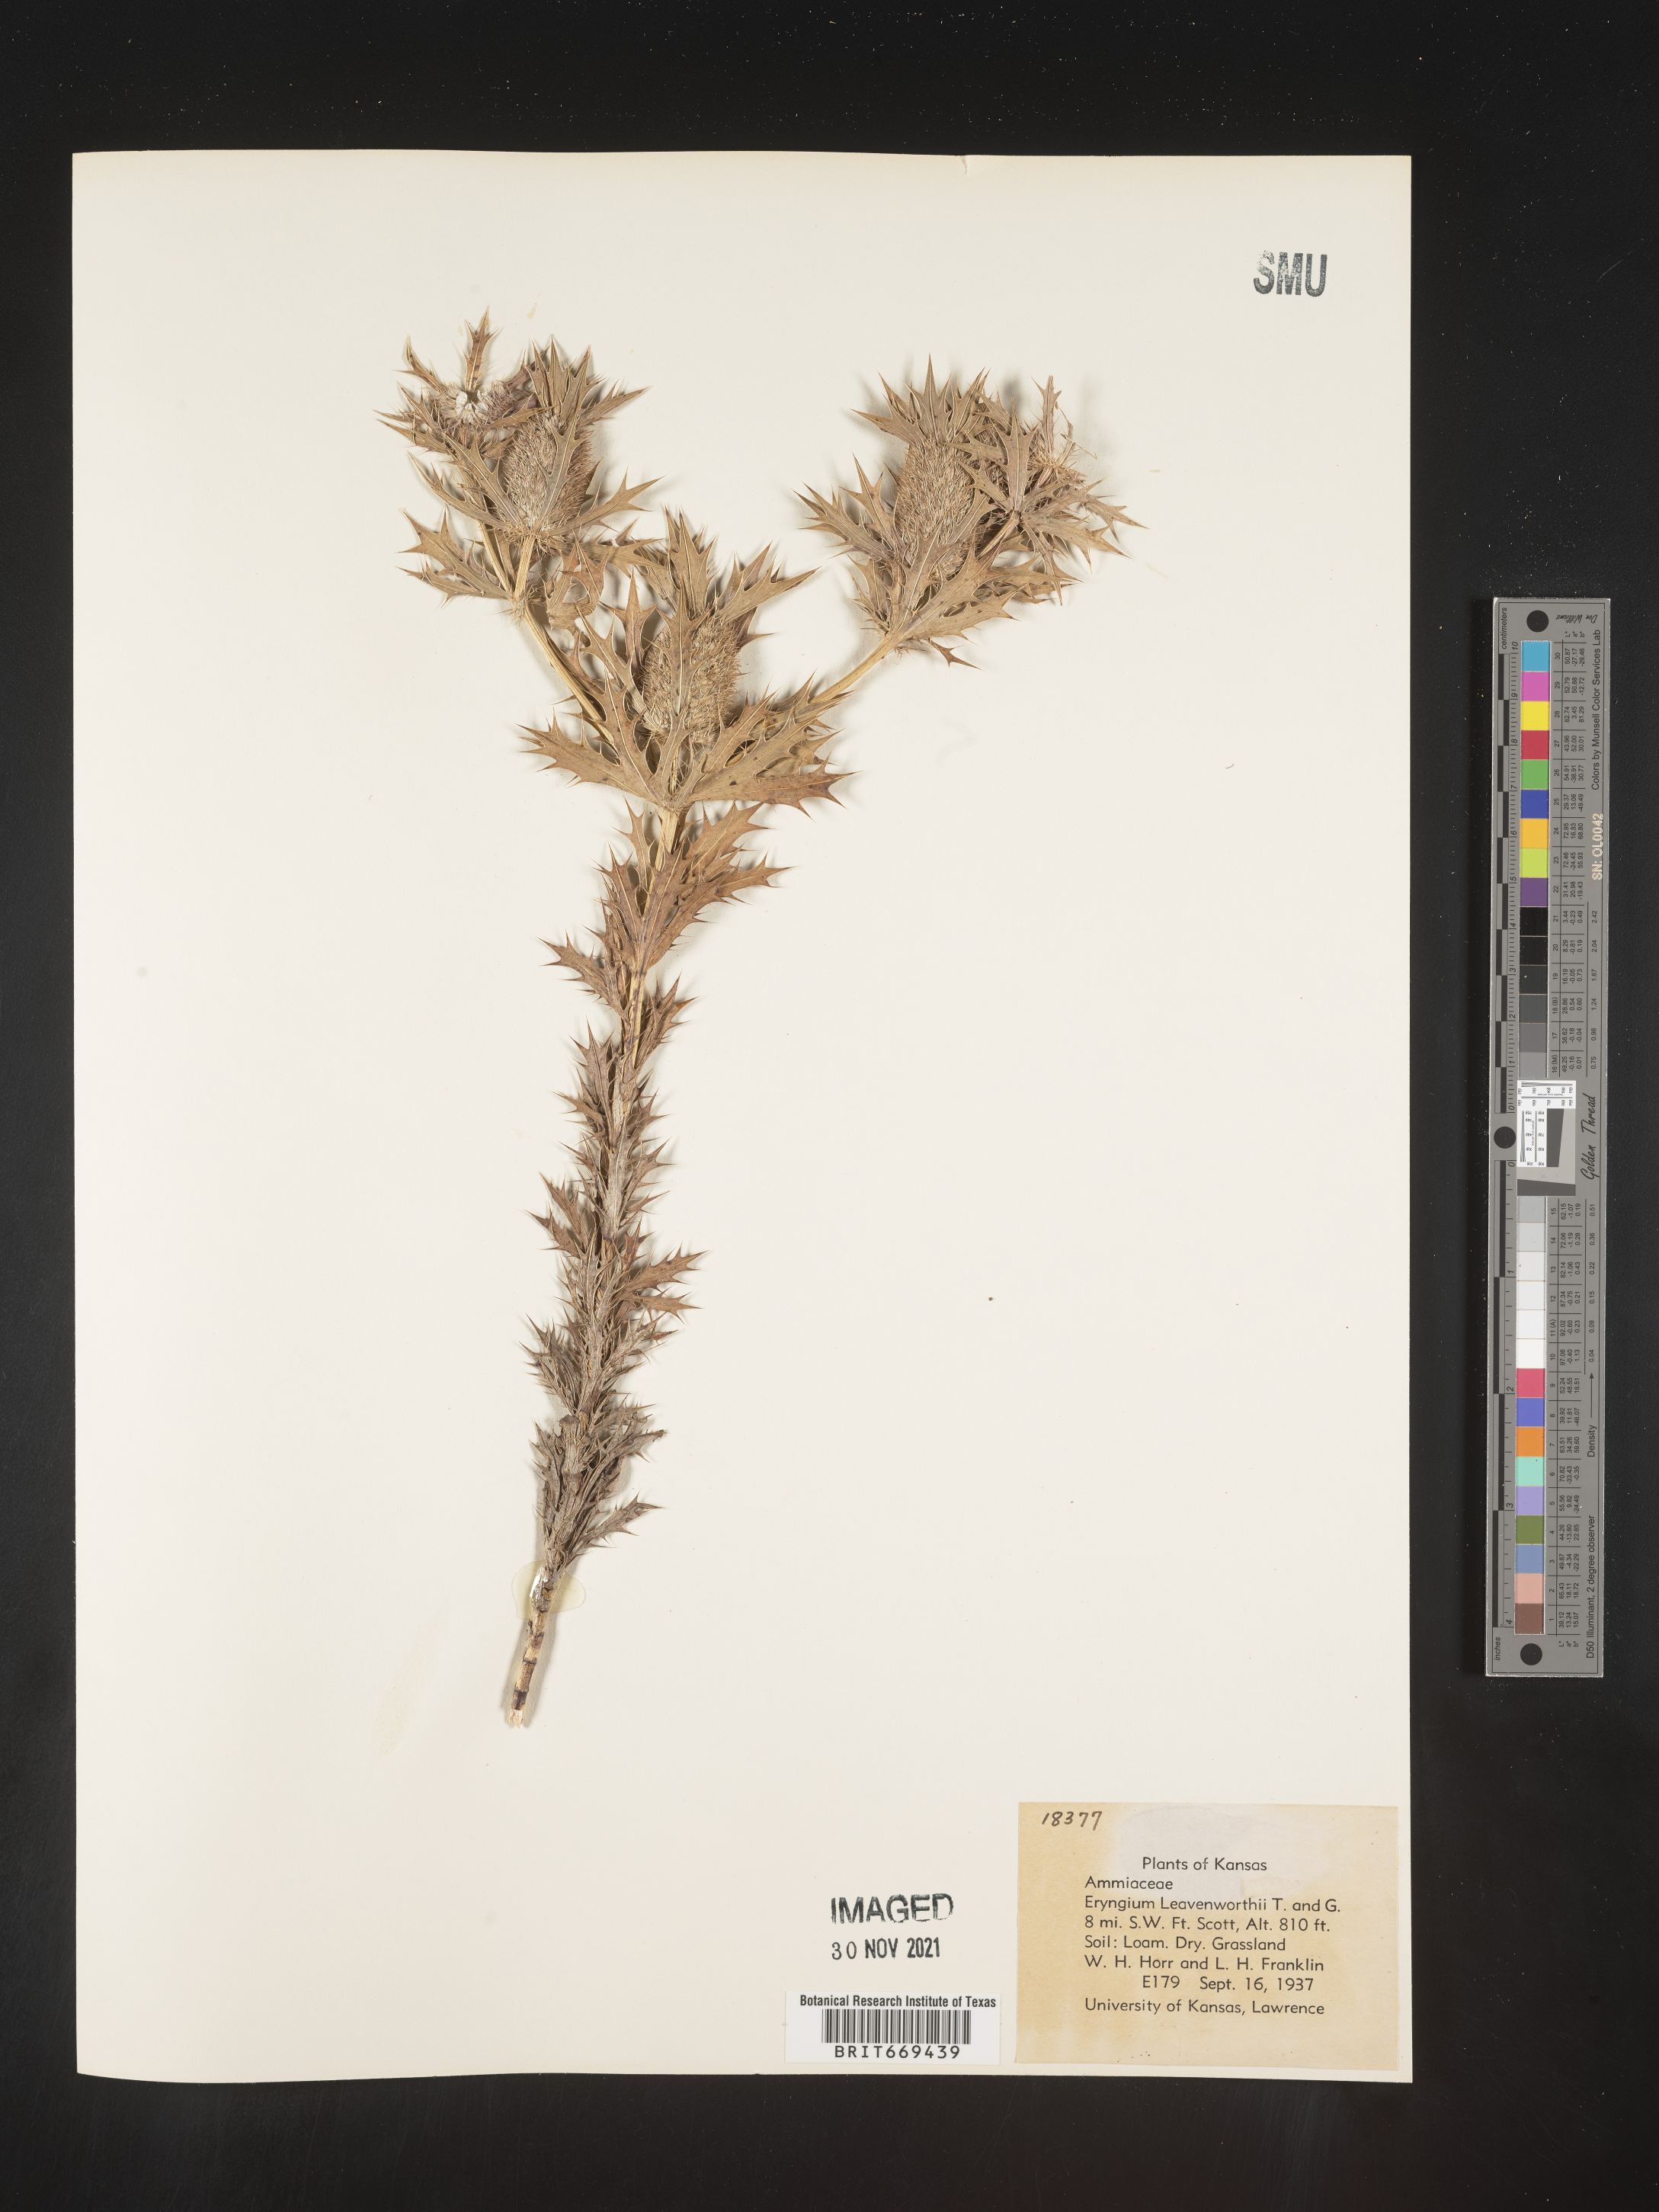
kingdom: Plantae
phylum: Tracheophyta
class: Magnoliopsida
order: Apiales
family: Apiaceae
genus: Eryngium
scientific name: Eryngium leavenworthii
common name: Leavenworth's eryngo
